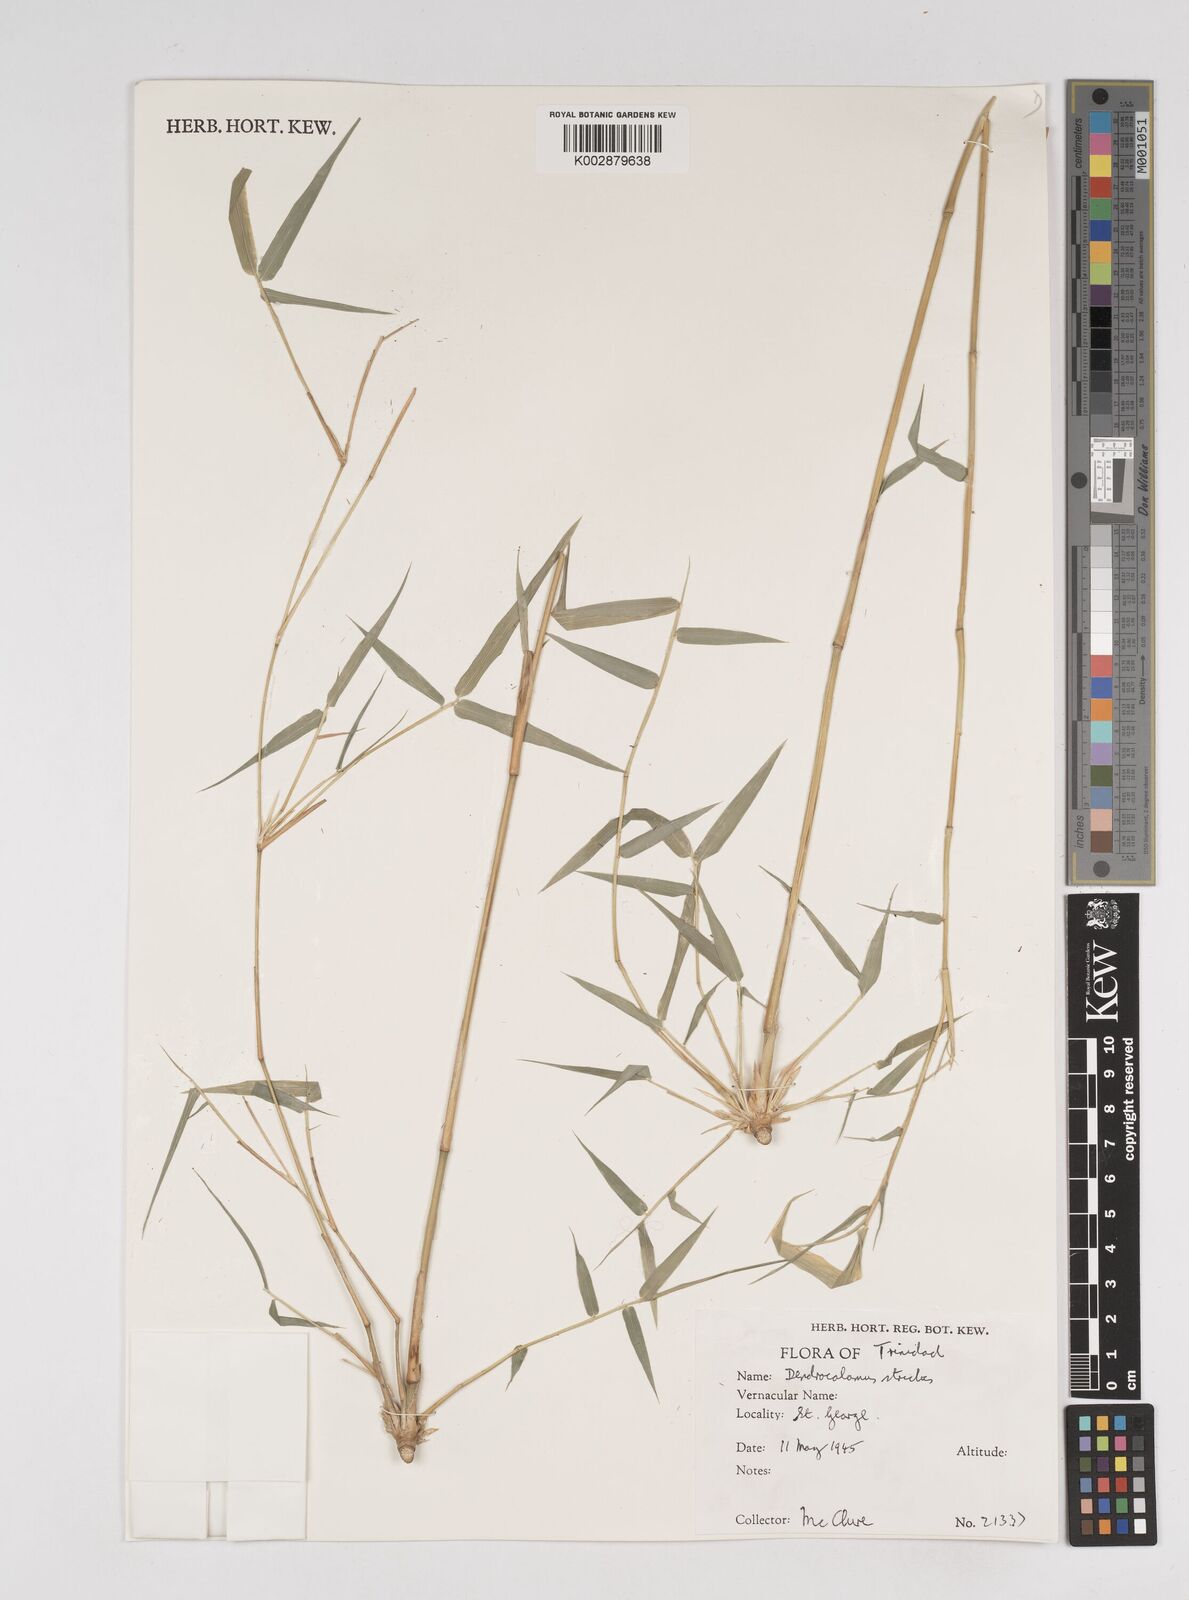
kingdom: Plantae
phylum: Tracheophyta
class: Liliopsida
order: Poales
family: Poaceae
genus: Dendrocalamus
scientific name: Dendrocalamus strictus
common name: Male bamboo
